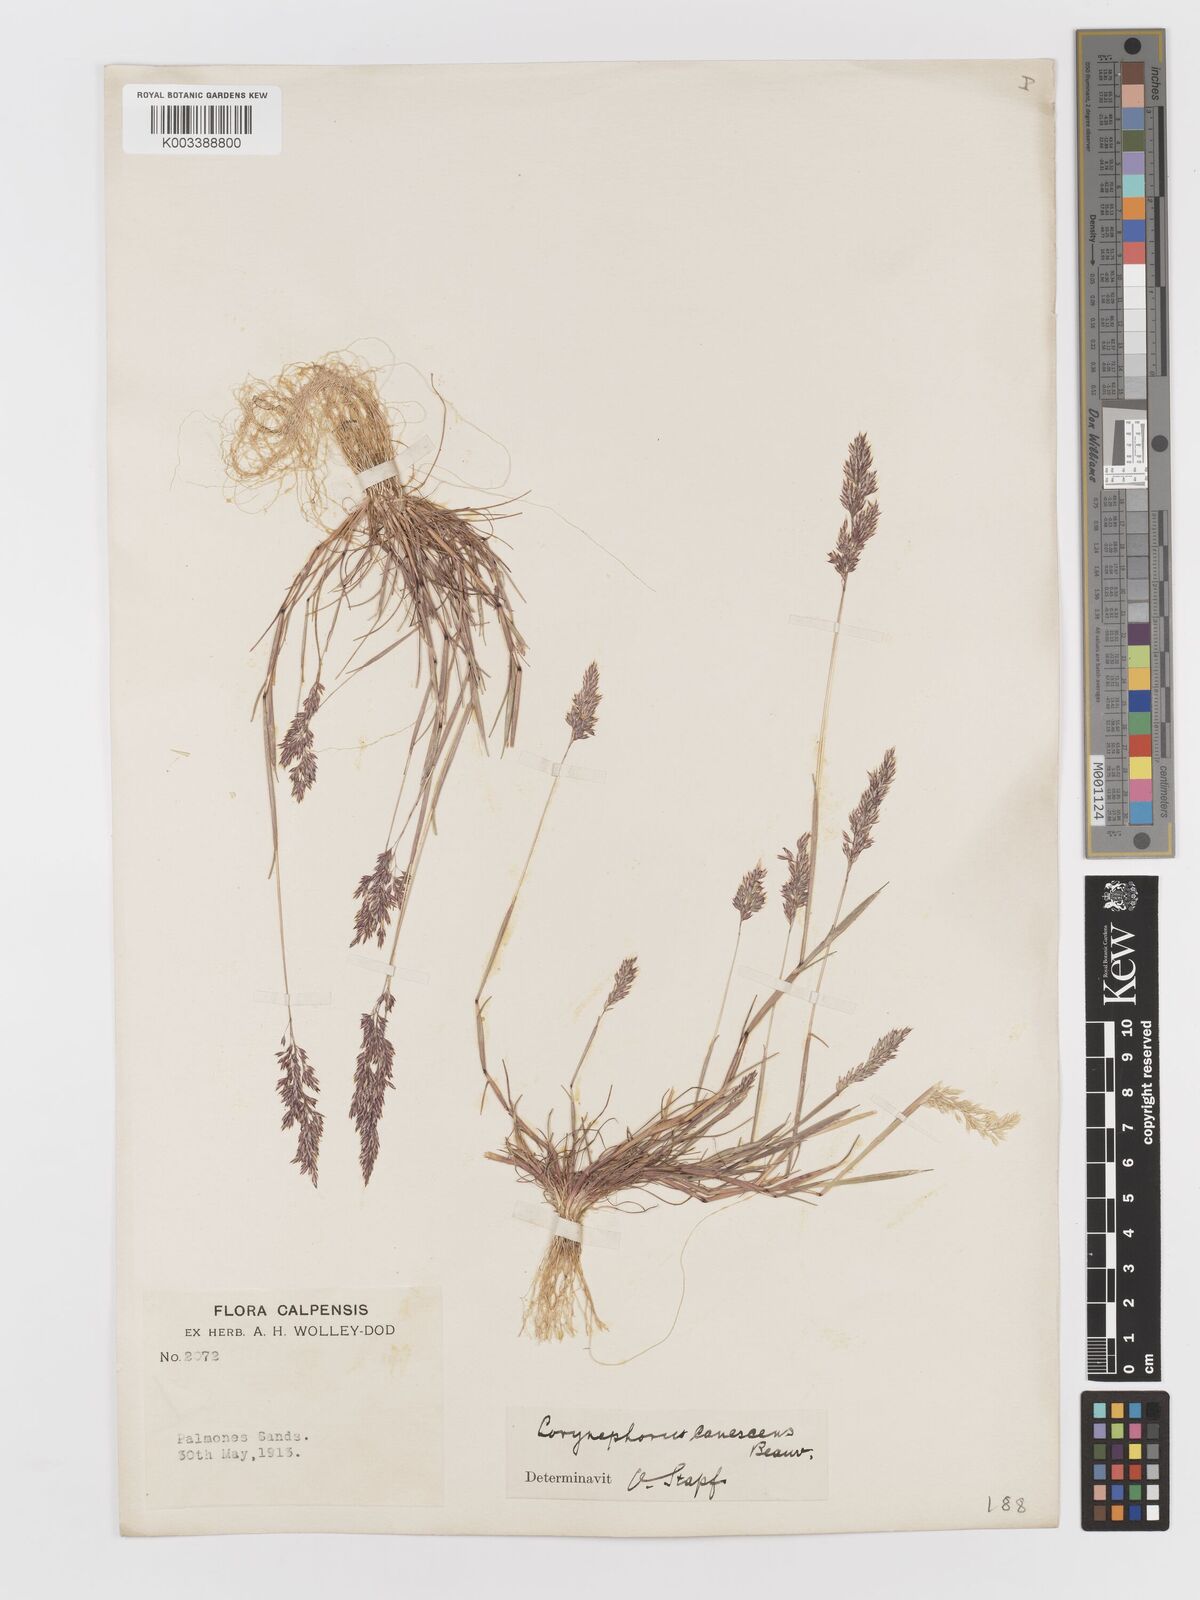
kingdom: Plantae
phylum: Tracheophyta
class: Liliopsida
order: Poales
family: Poaceae
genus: Corynephorus
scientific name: Corynephorus canescens
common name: Grey hair-grass
